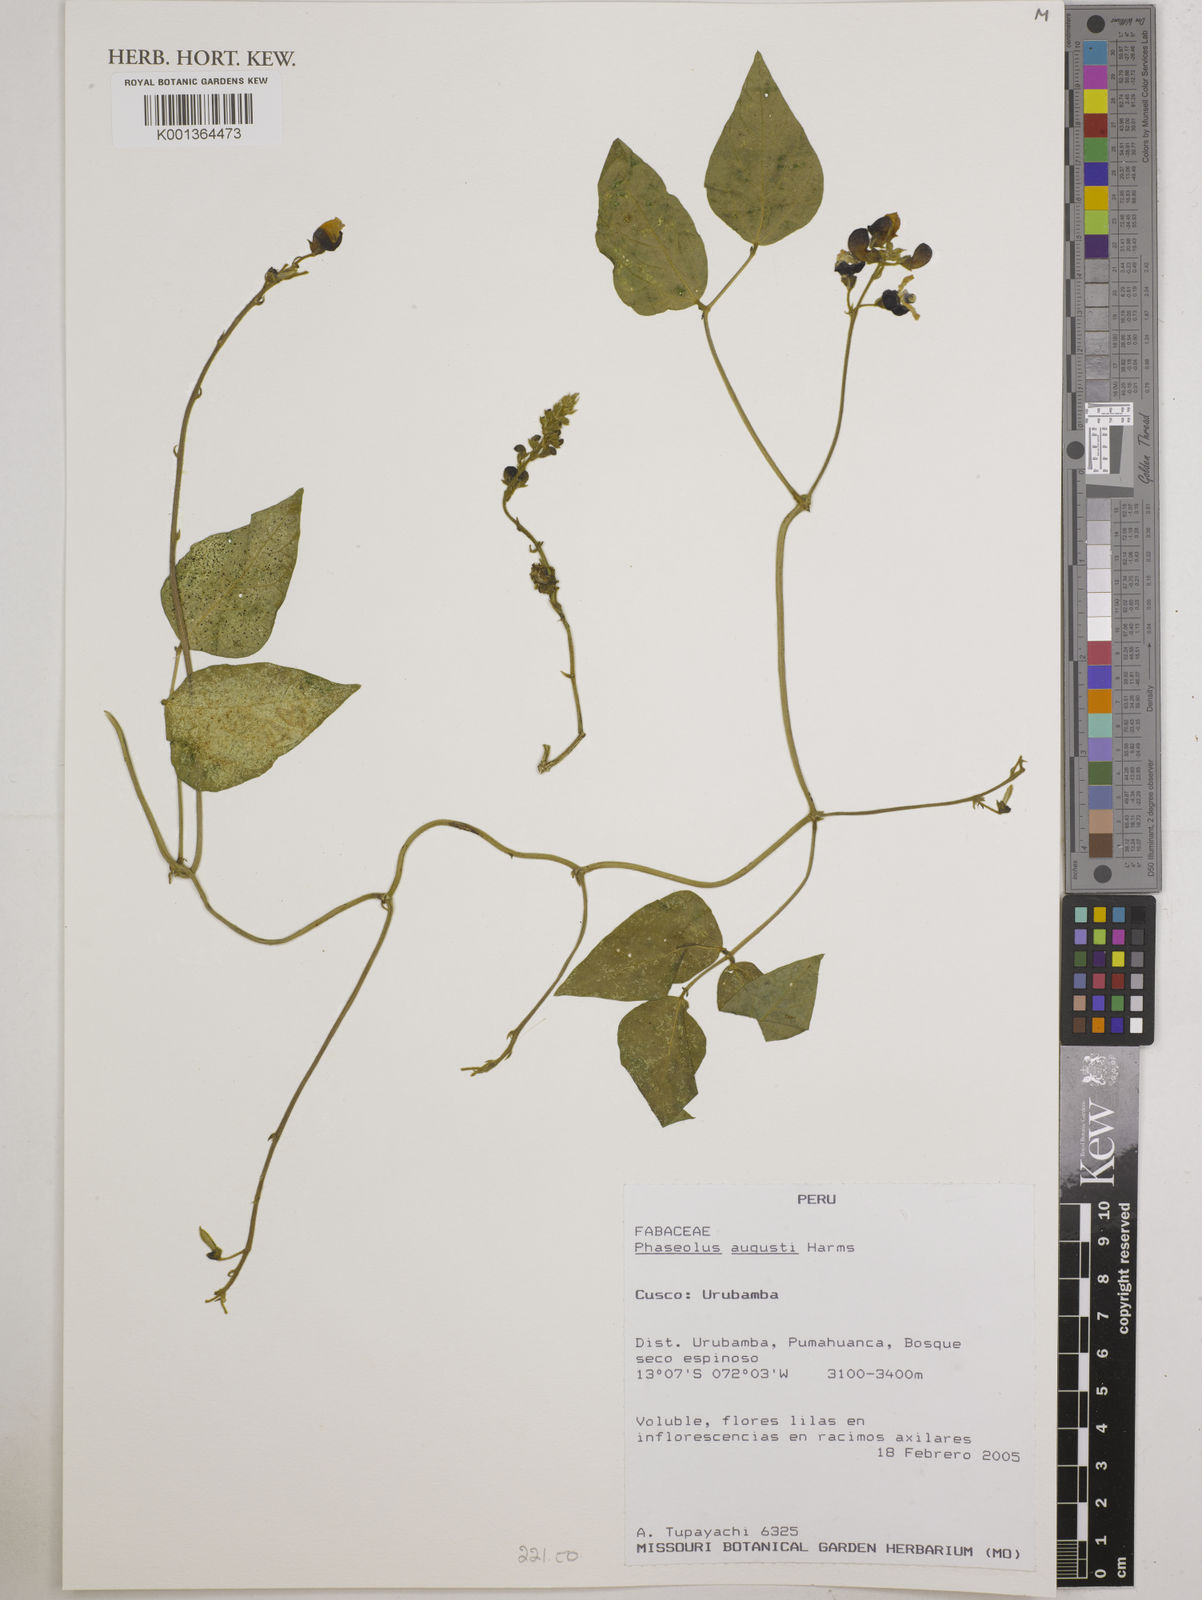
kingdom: Plantae
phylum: Tracheophyta
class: Magnoliopsida
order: Fabales
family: Fabaceae
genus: Phaseolus
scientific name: Phaseolus augusti
